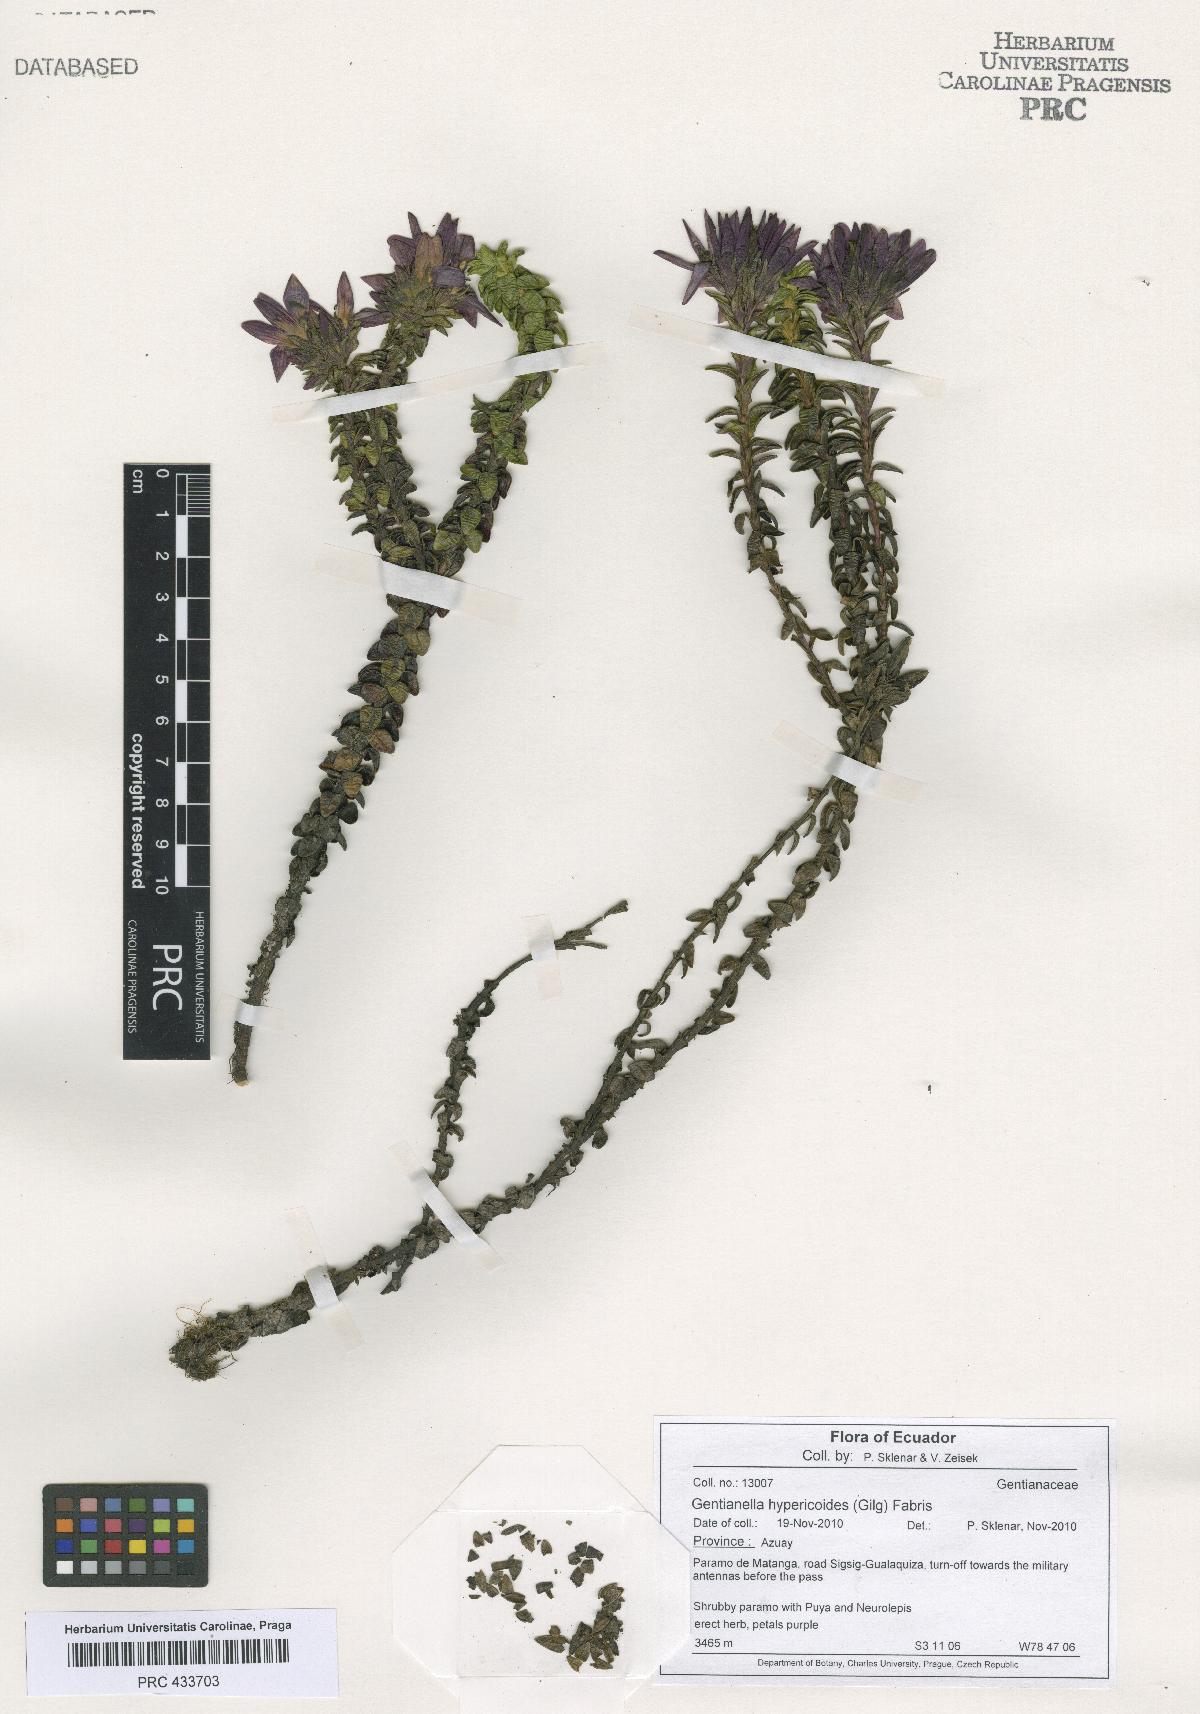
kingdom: Plantae
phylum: Tracheophyta
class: Magnoliopsida
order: Gentianales
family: Gentianaceae
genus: Gentianella
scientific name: Gentianella hypericoides
